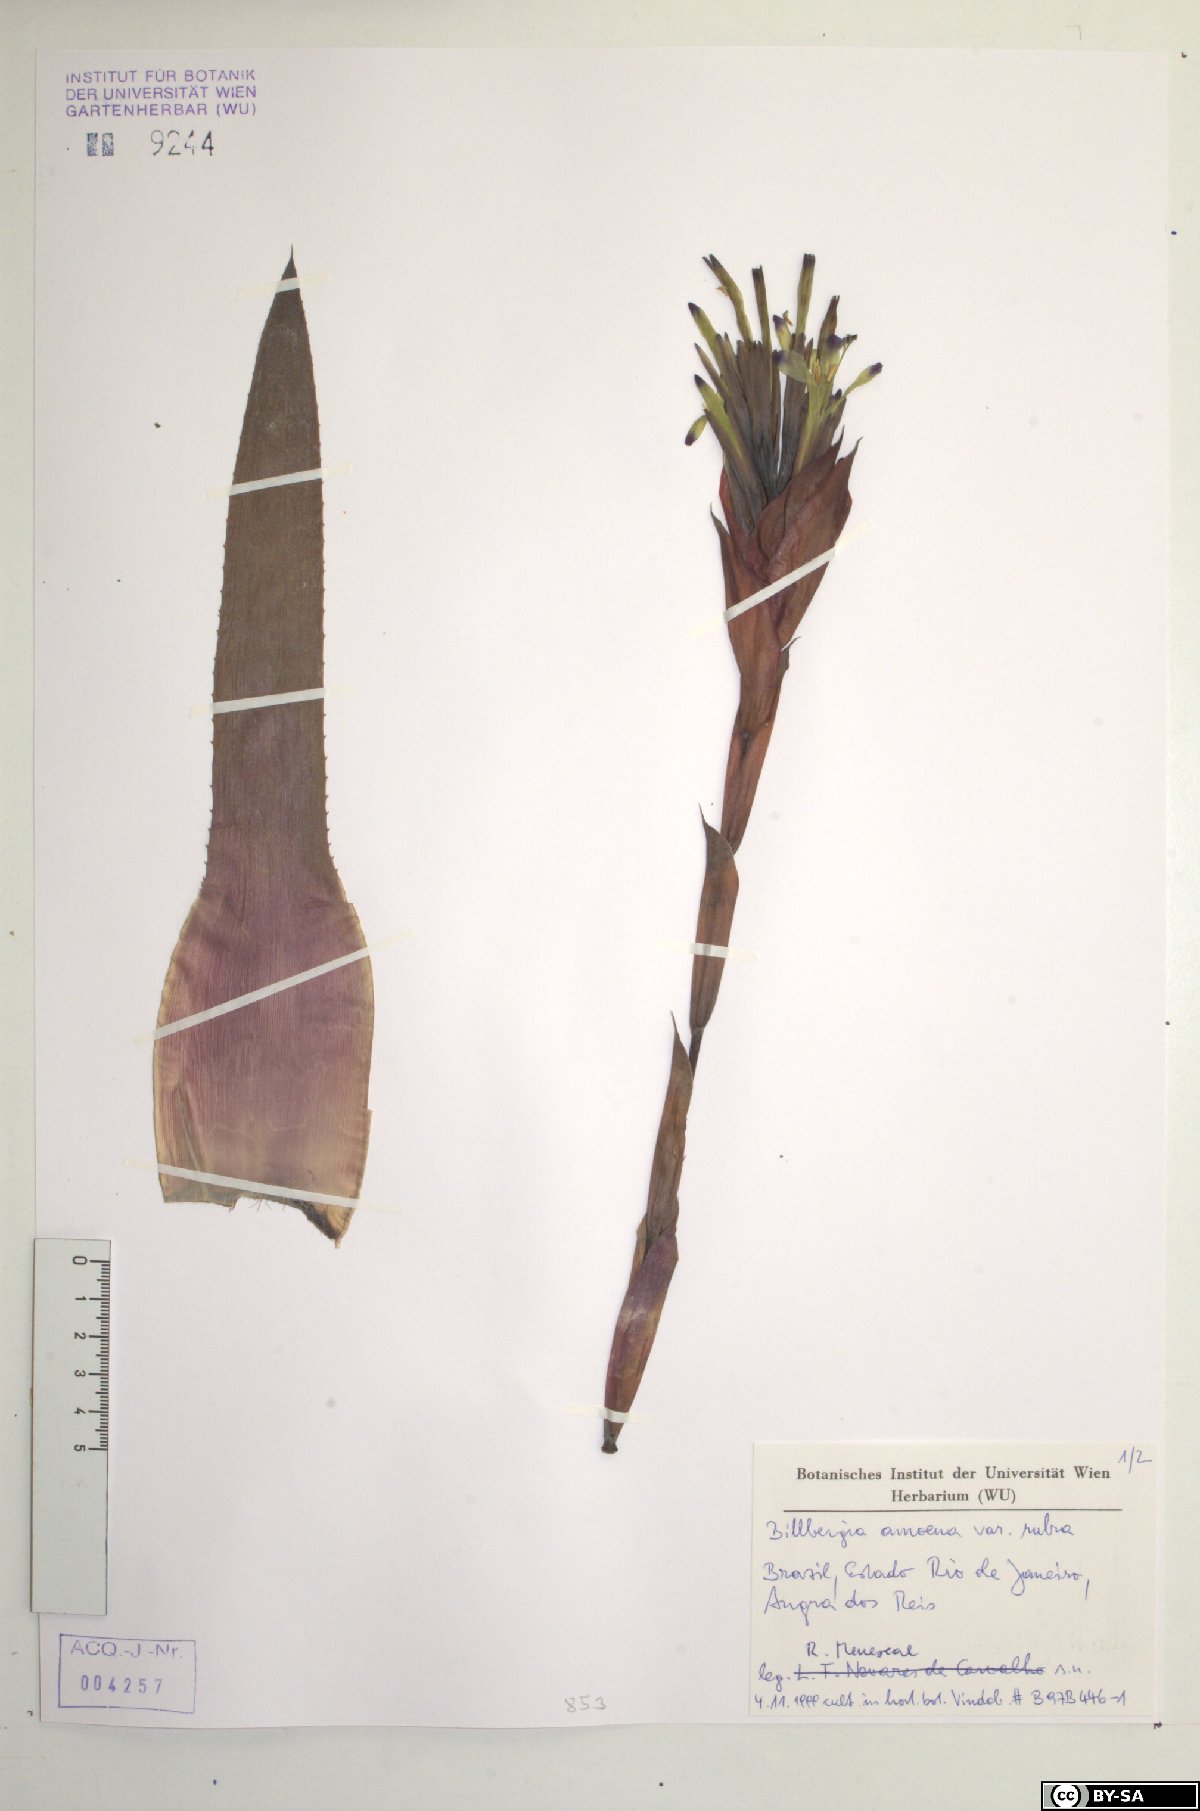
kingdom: Plantae
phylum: Tracheophyta
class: Liliopsida
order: Poales
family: Bromeliaceae
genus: Billbergia
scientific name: Billbergia amoena
